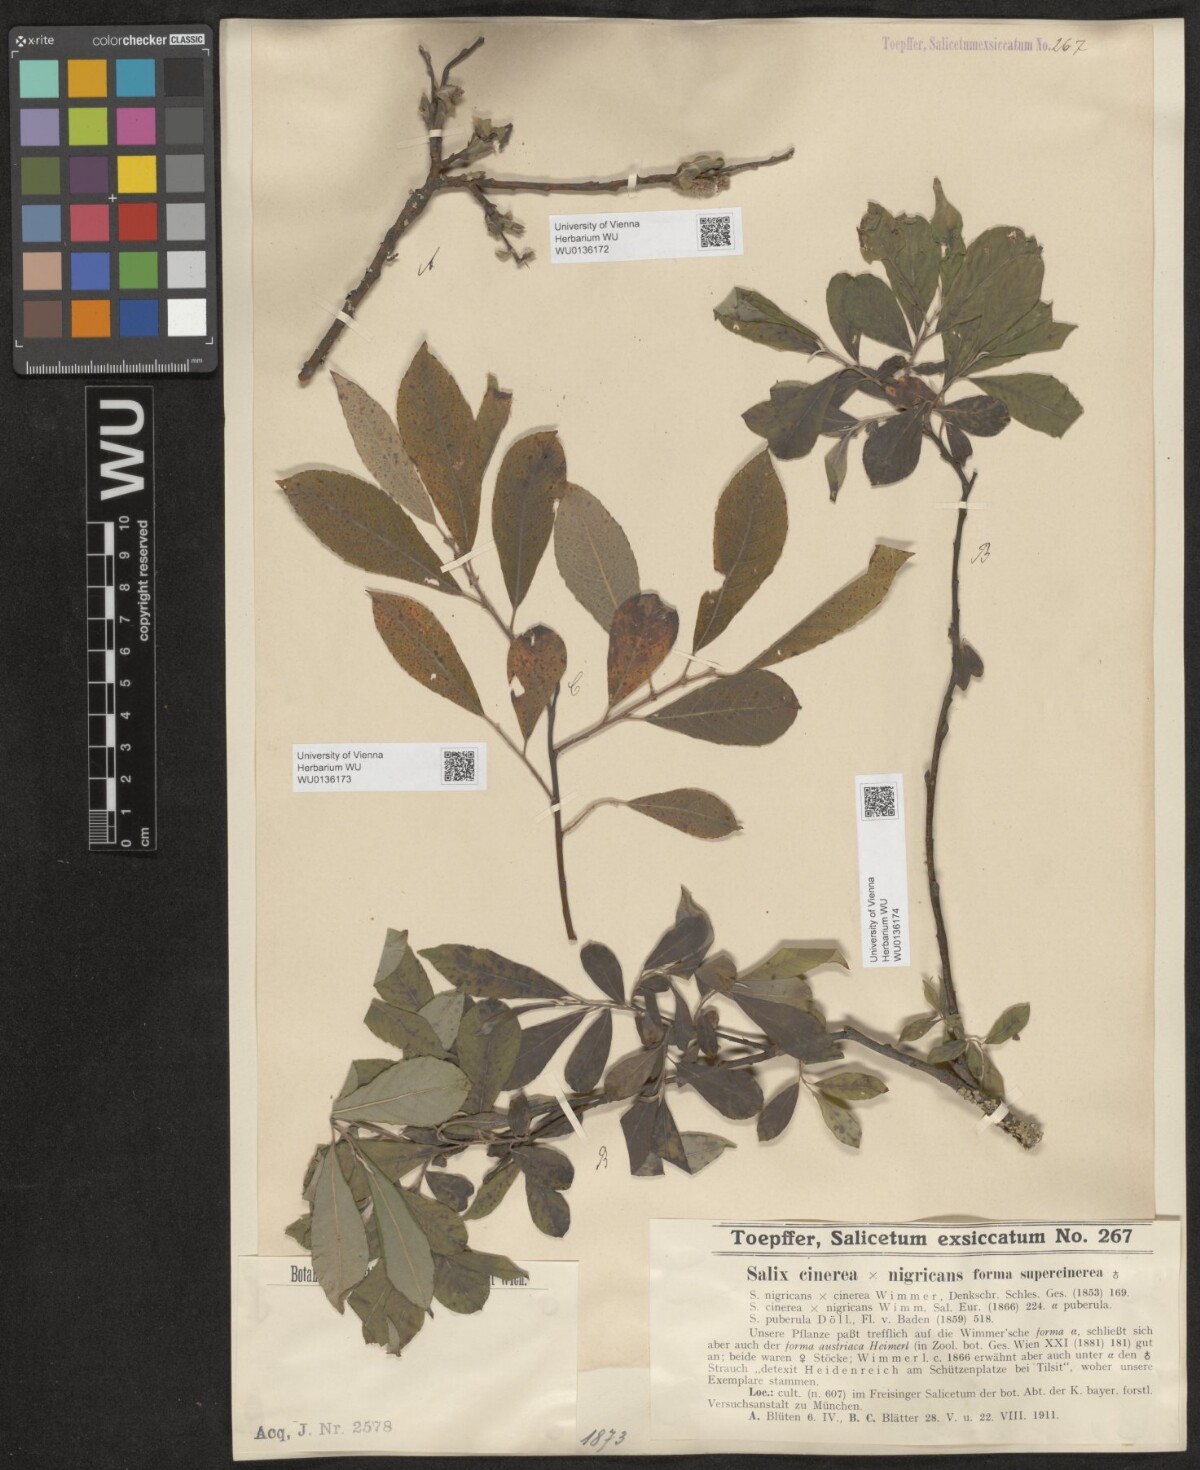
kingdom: Plantae
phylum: Tracheophyta
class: Magnoliopsida
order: Malpighiales
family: Salicaceae
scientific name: Salicaceae
